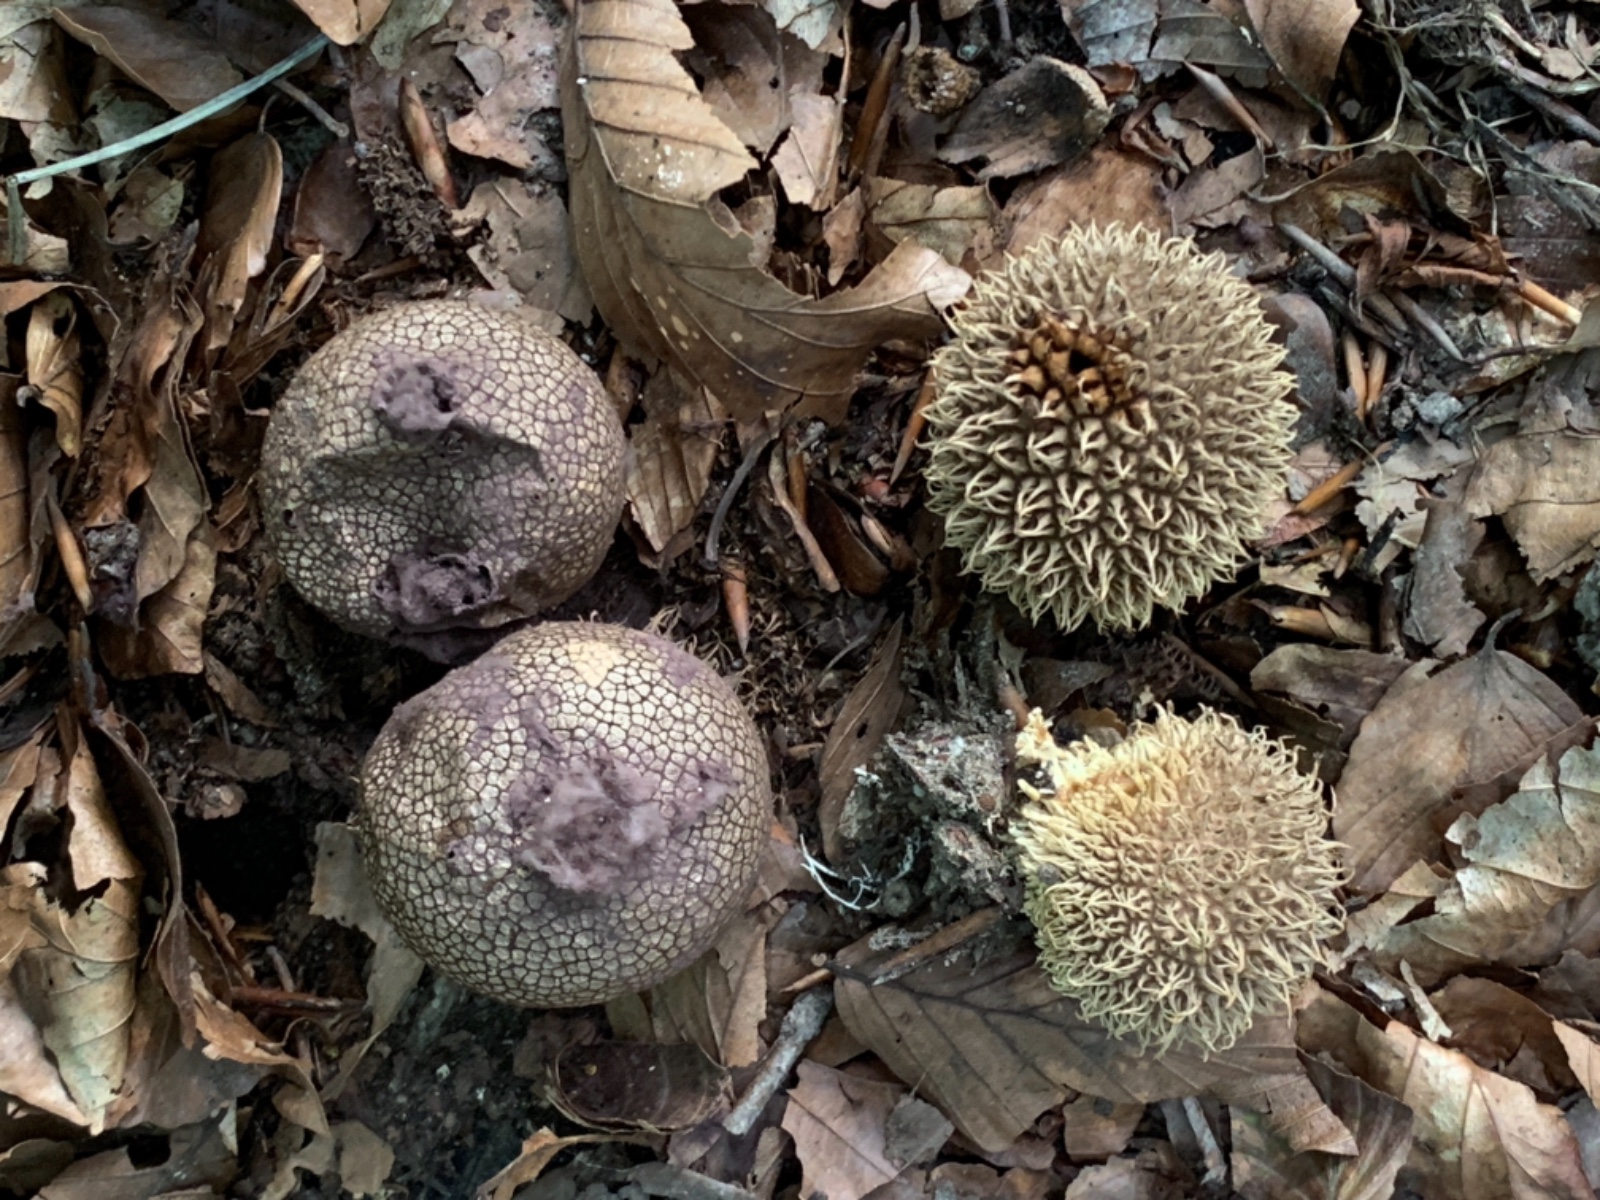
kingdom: Fungi
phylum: Basidiomycota
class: Agaricomycetes
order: Agaricales
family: Lycoperdaceae
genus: Lycoperdon
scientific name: Lycoperdon echinatum
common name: pindsvine-støvbold
